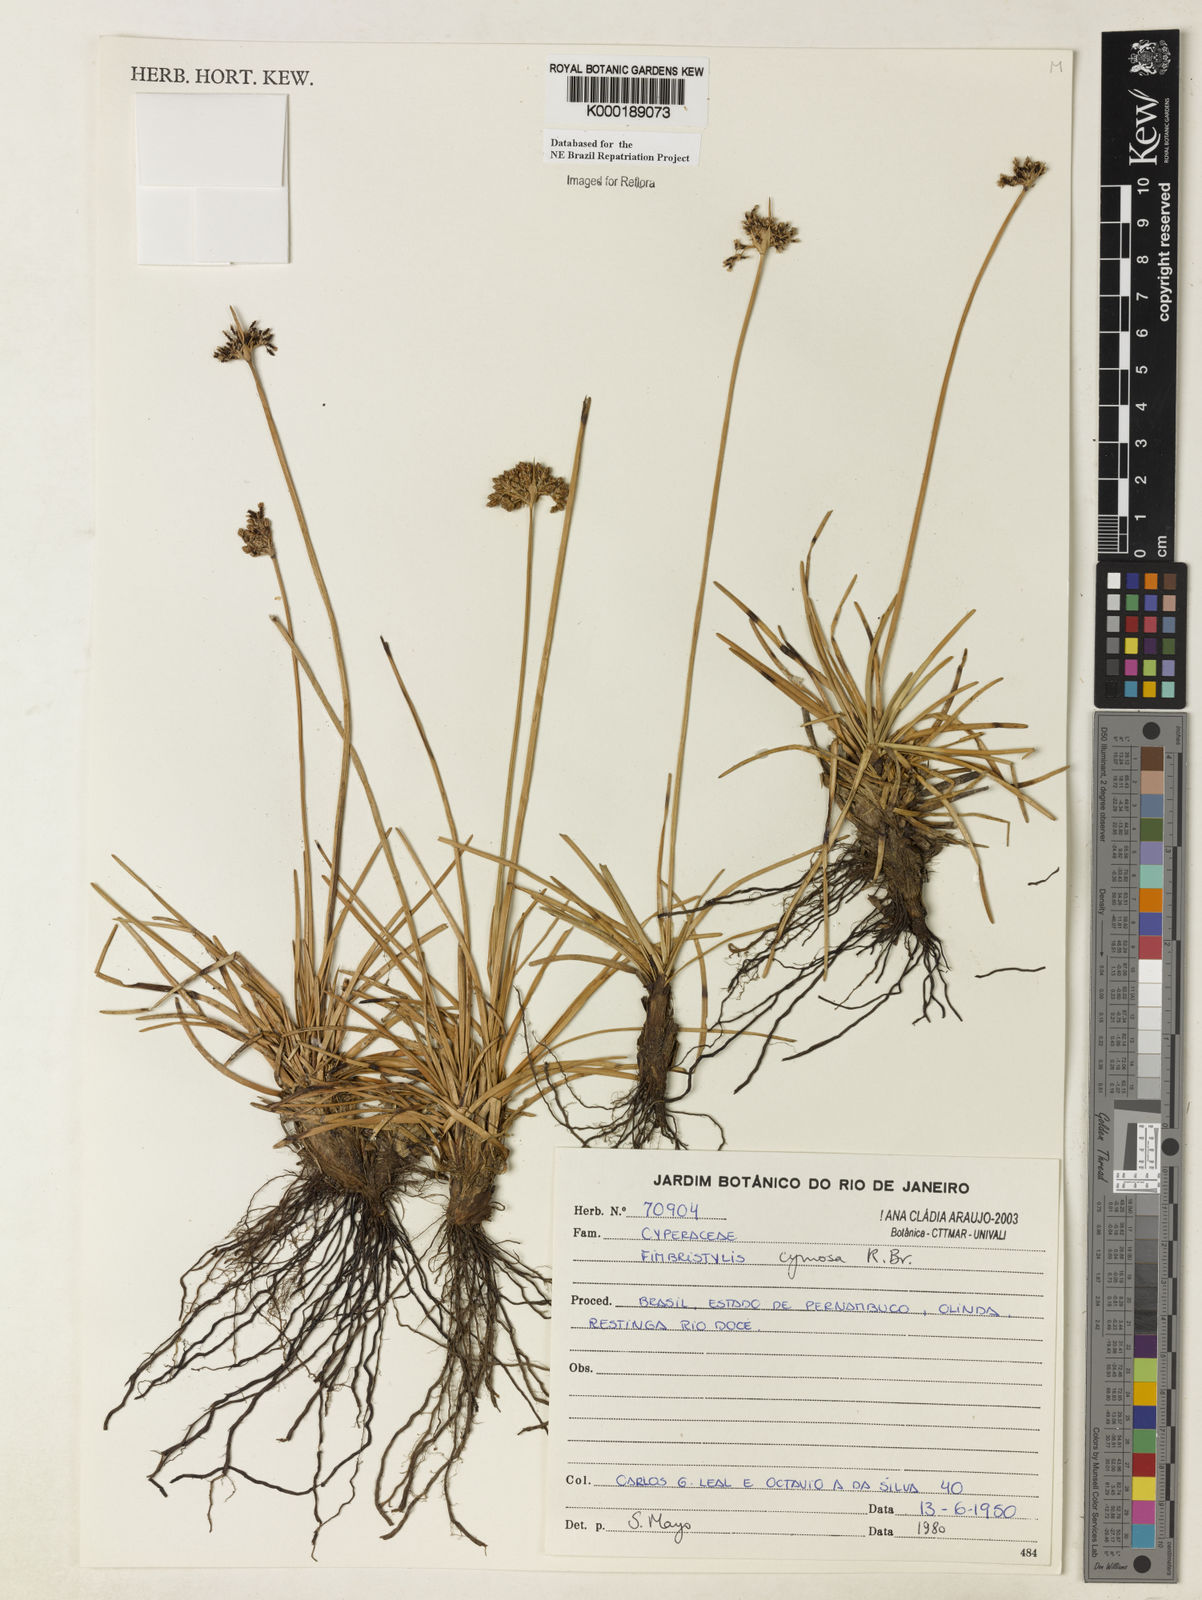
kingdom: Plantae
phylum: Tracheophyta
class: Liliopsida
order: Poales
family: Cyperaceae
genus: Fimbristylis
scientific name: Fimbristylis cymosa
